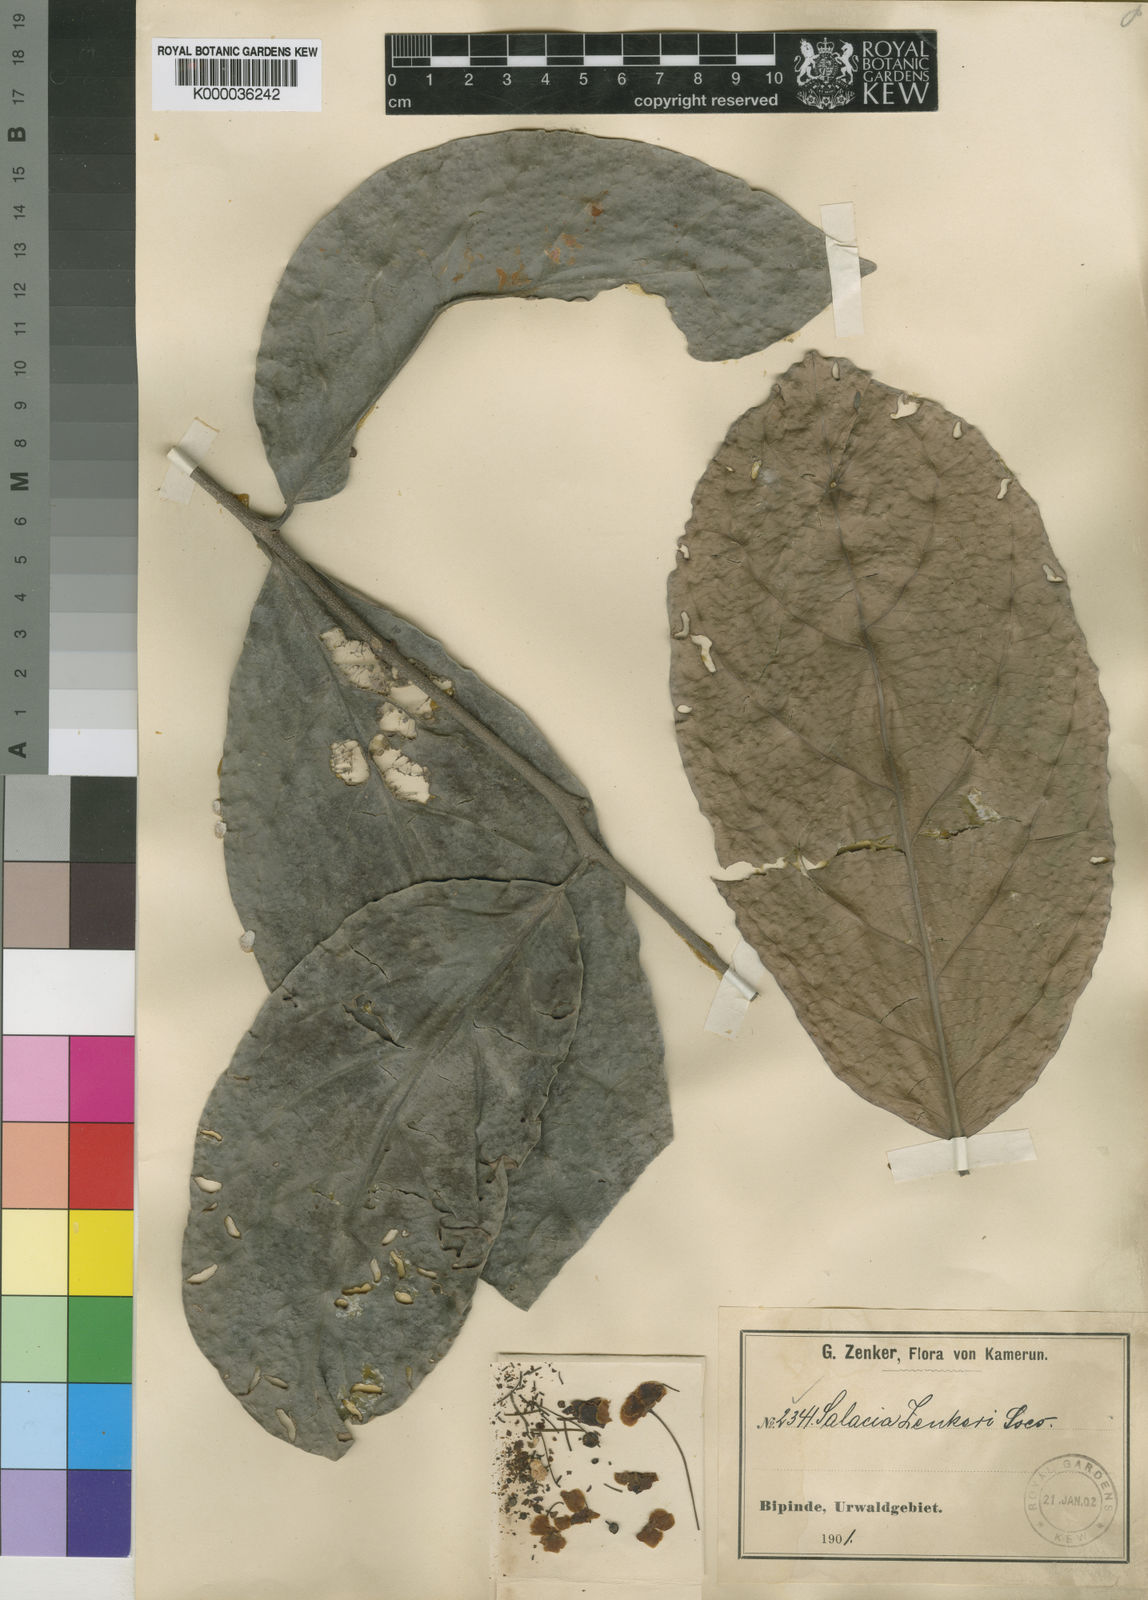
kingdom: Plantae
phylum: Tracheophyta
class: Magnoliopsida
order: Celastrales
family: Celastraceae
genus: Salacia
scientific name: Salacia zenkeri
